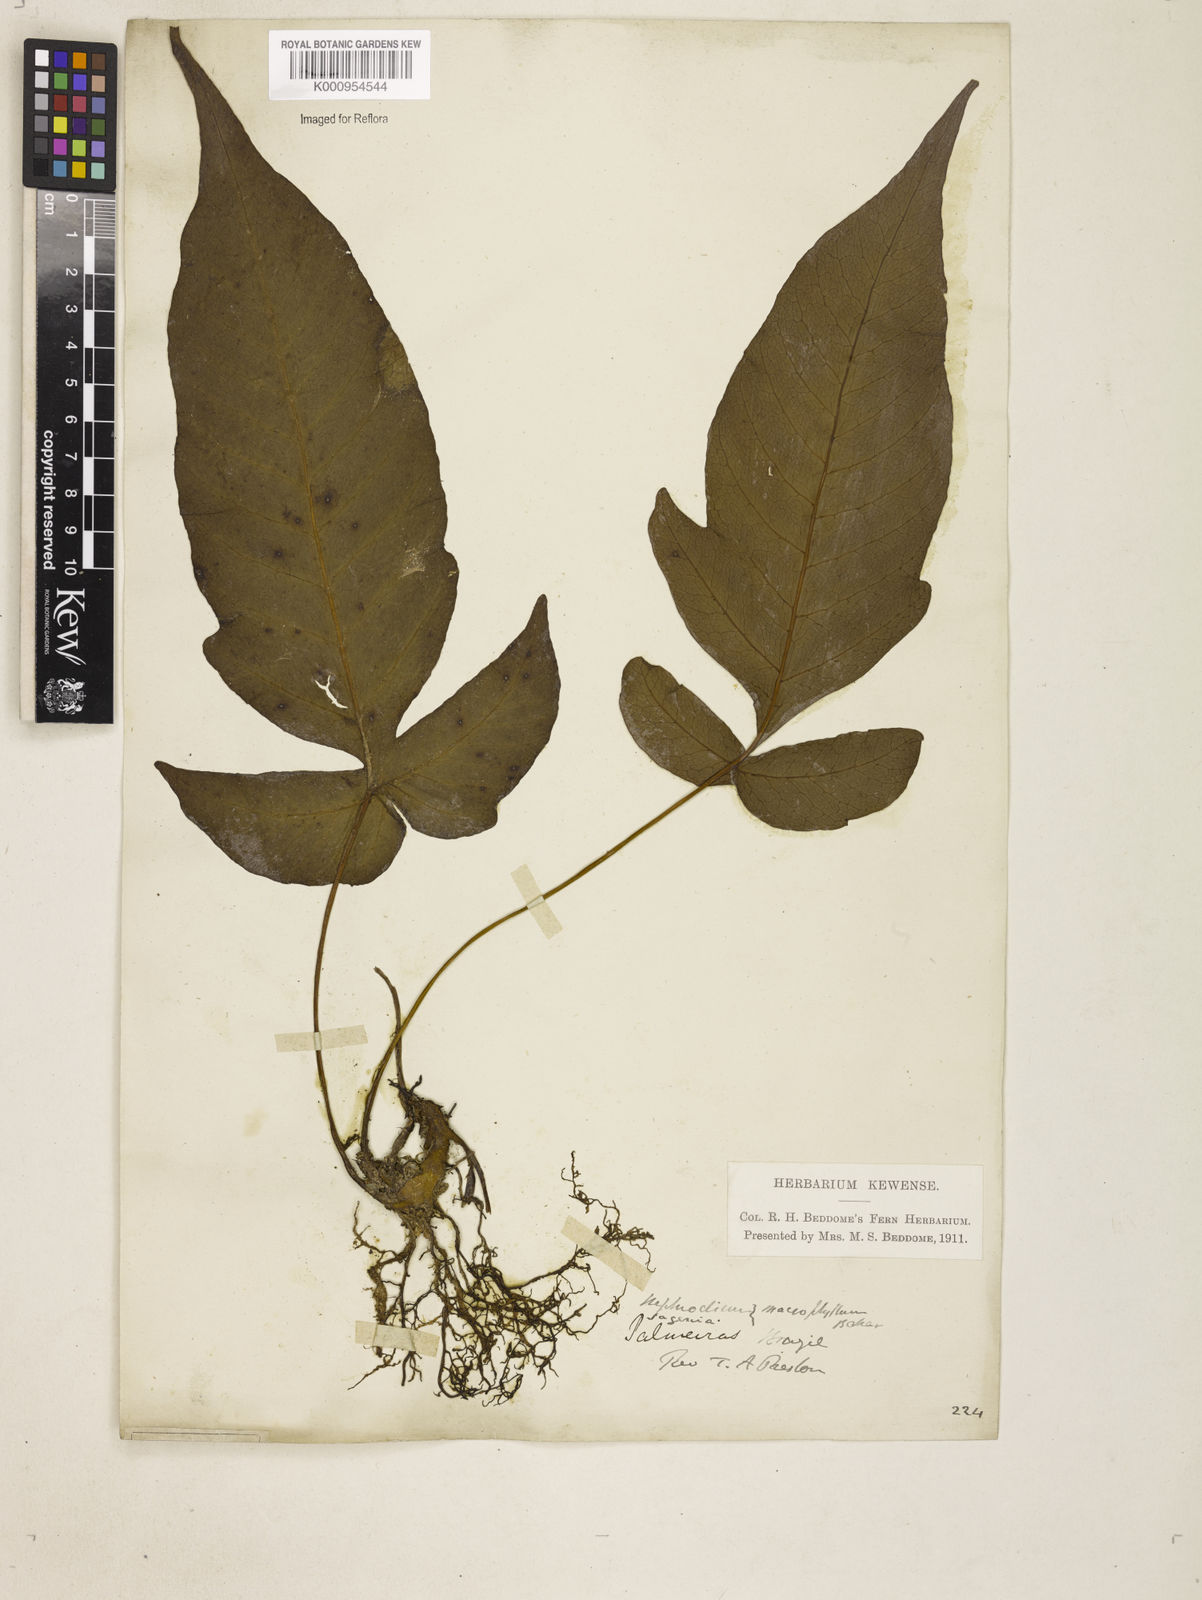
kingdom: Plantae
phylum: Tracheophyta
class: Polypodiopsida
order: Polypodiales
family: Tectariaceae
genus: Tectaria
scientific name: Tectaria incisa
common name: Incised halberd fern
